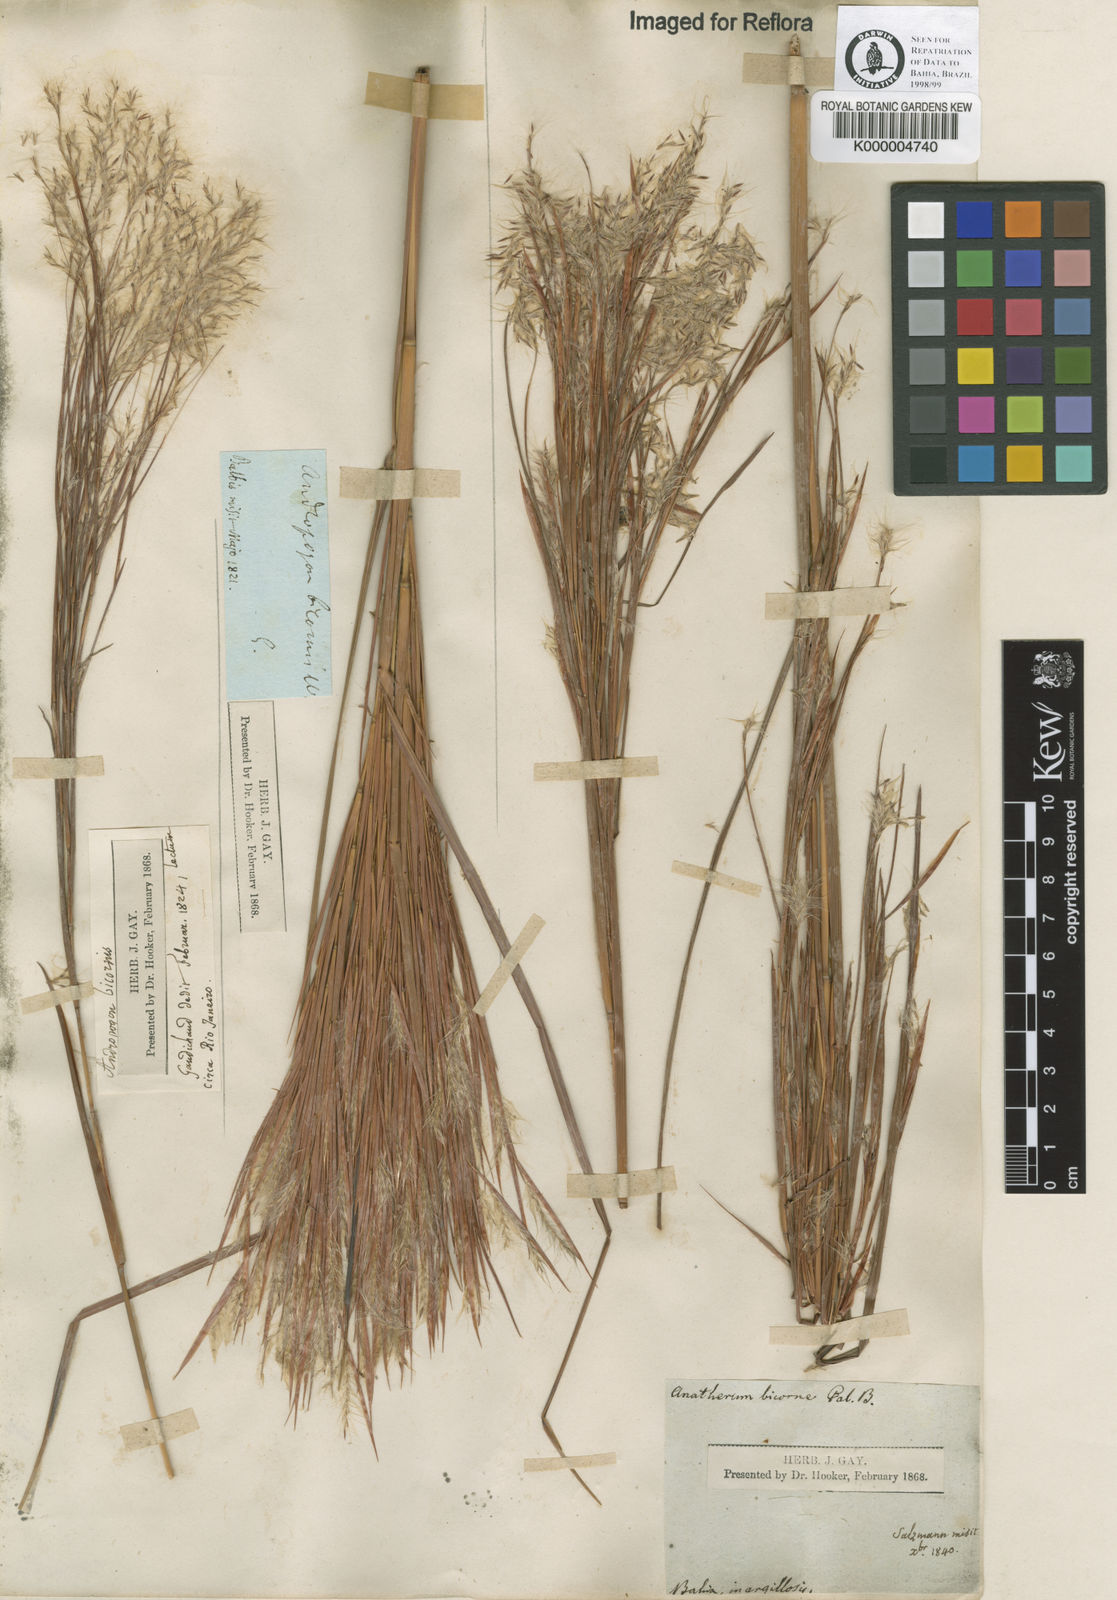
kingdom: Plantae
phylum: Tracheophyta
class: Liliopsida
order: Poales
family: Poaceae
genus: Andropogon
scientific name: Andropogon bicornis
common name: West indian foxtail grass
